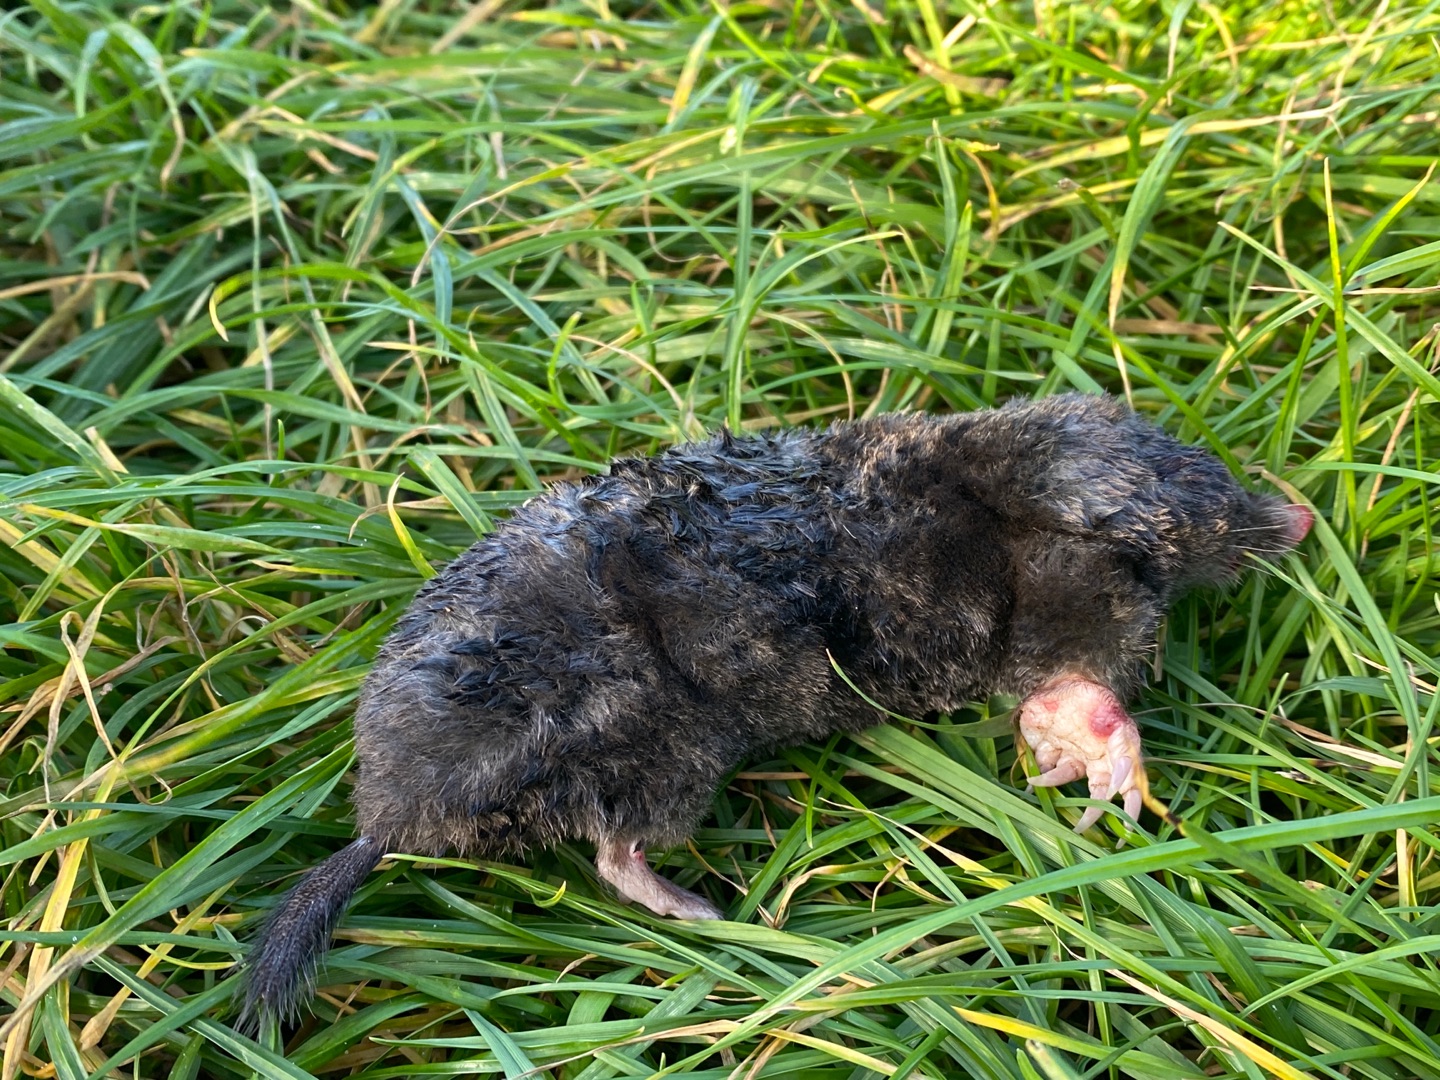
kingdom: Animalia
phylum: Chordata
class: Mammalia
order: Soricomorpha
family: Talpidae
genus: Talpa
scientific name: Talpa europaea
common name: Muldvarp
